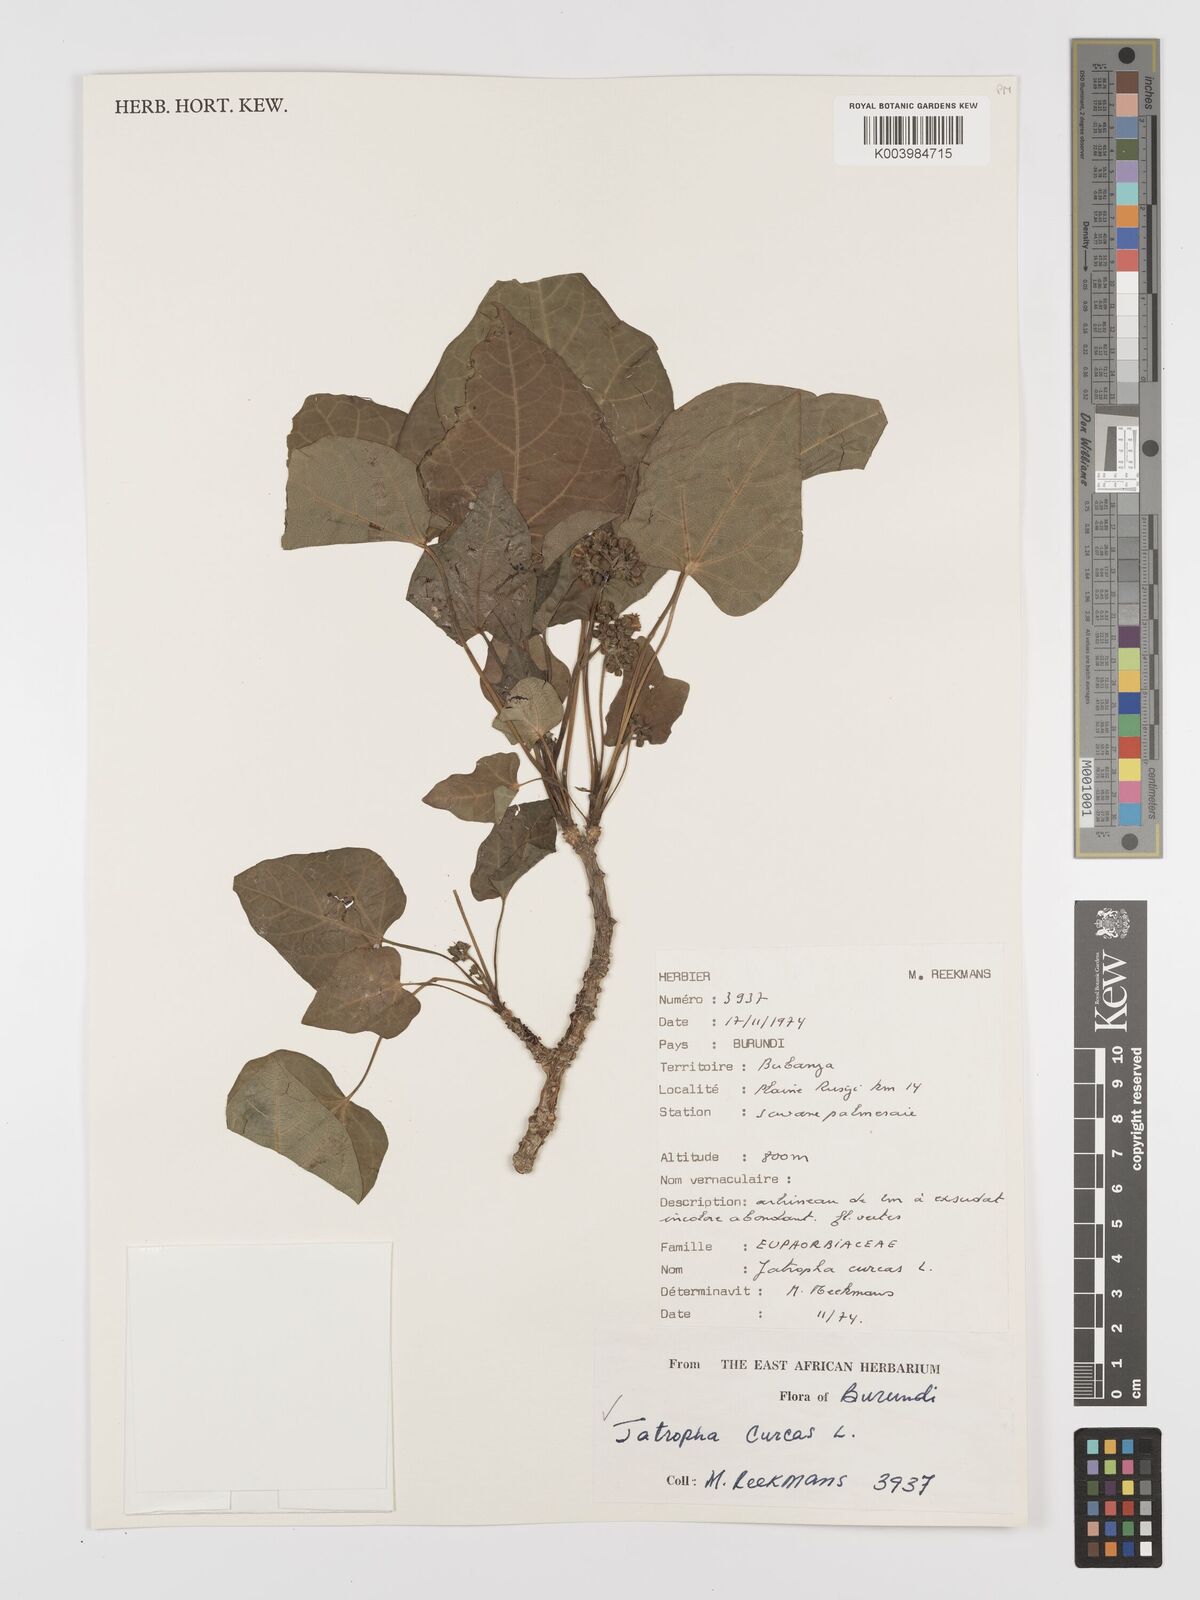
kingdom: Plantae
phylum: Tracheophyta
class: Magnoliopsida
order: Malpighiales
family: Euphorbiaceae
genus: Jatropha
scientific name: Jatropha curcas
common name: Barbados nut
